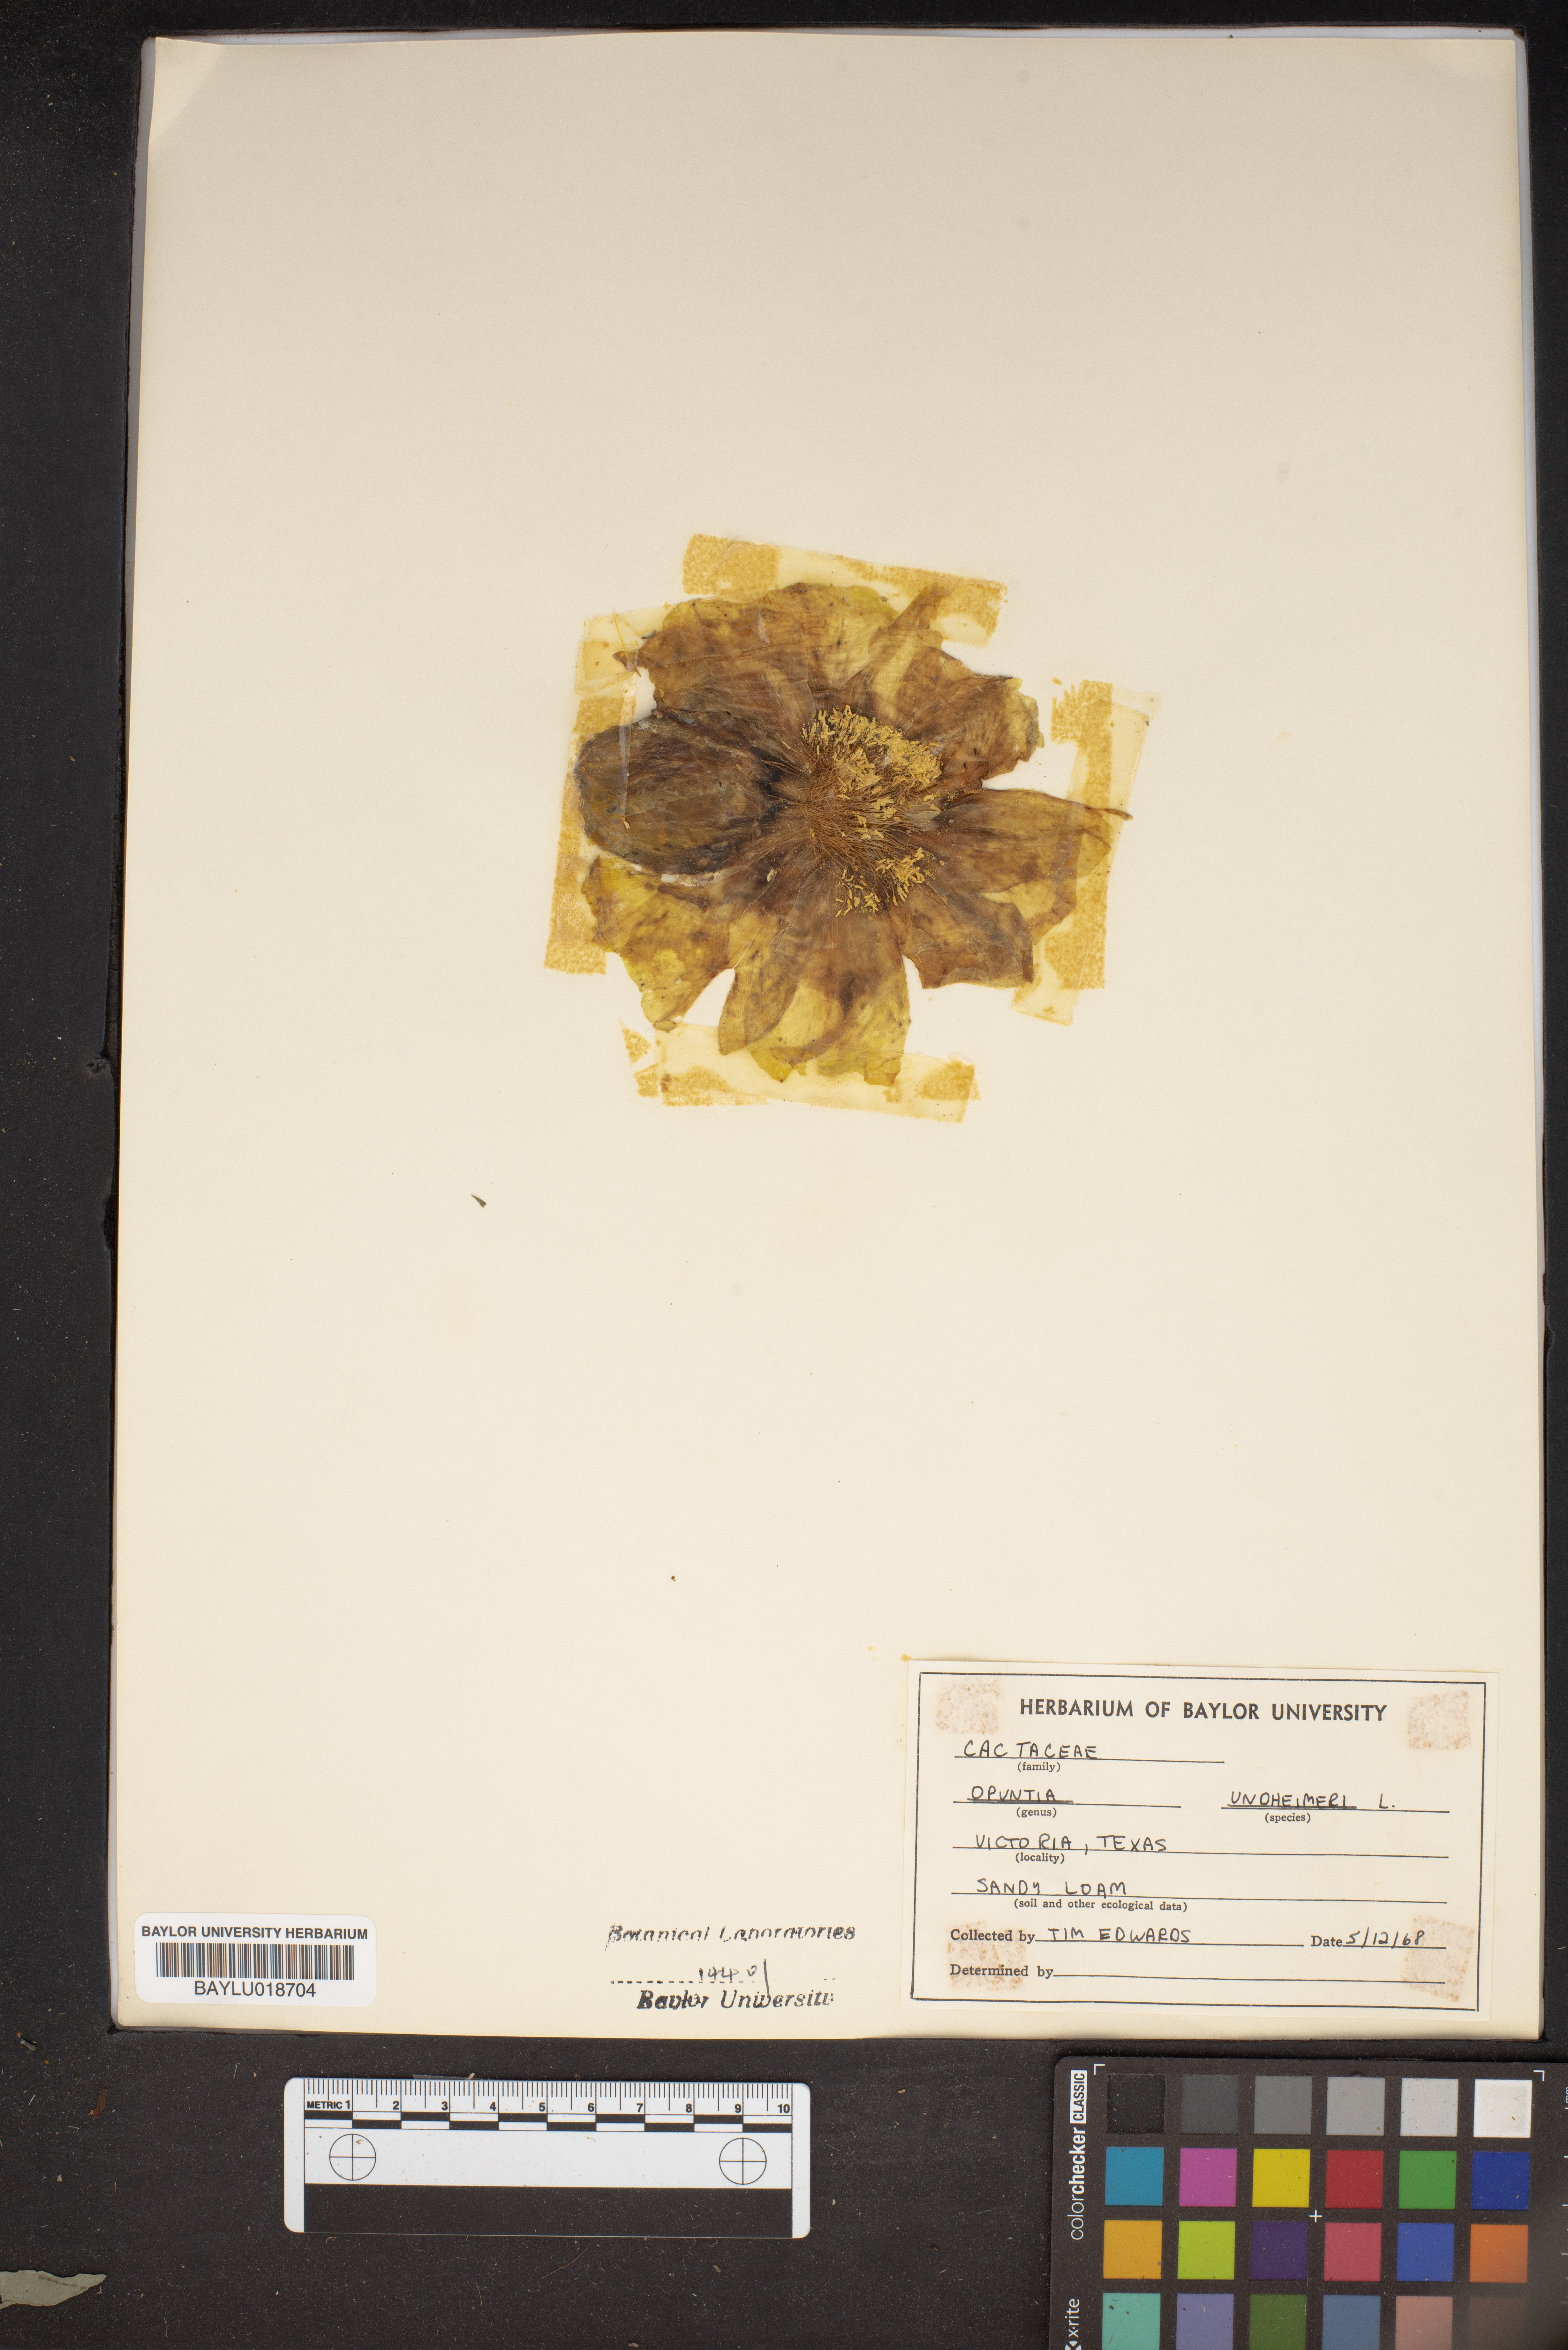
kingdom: Plantae
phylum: Tracheophyta
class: Magnoliopsida
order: Caryophyllales
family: Cactaceae
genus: Opuntia
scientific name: Opuntia engelmannii
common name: Cactus-apple
